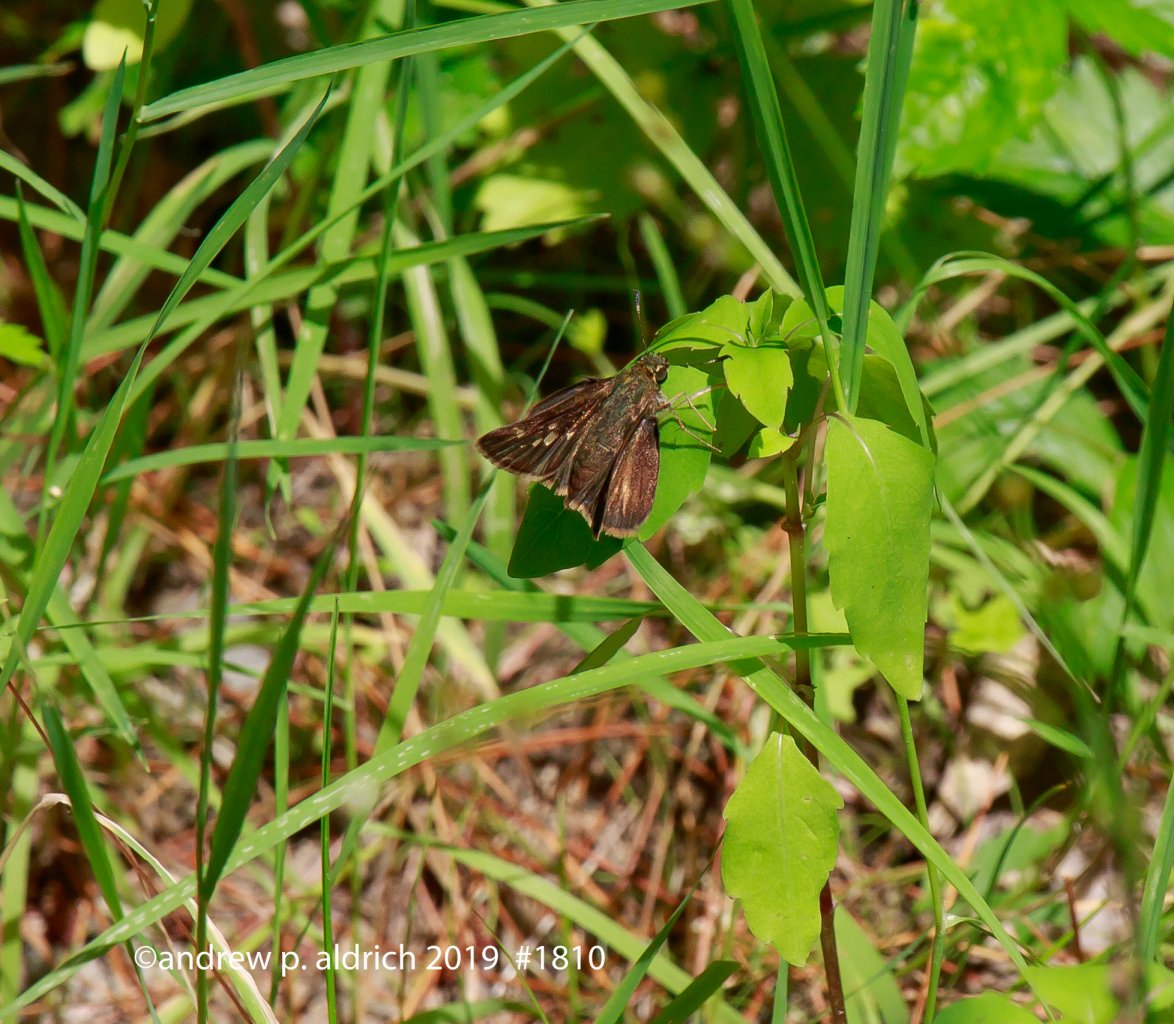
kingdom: Animalia
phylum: Arthropoda
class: Insecta
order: Lepidoptera
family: Hesperiidae
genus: Vernia
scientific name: Vernia verna
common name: Little Glassywing
